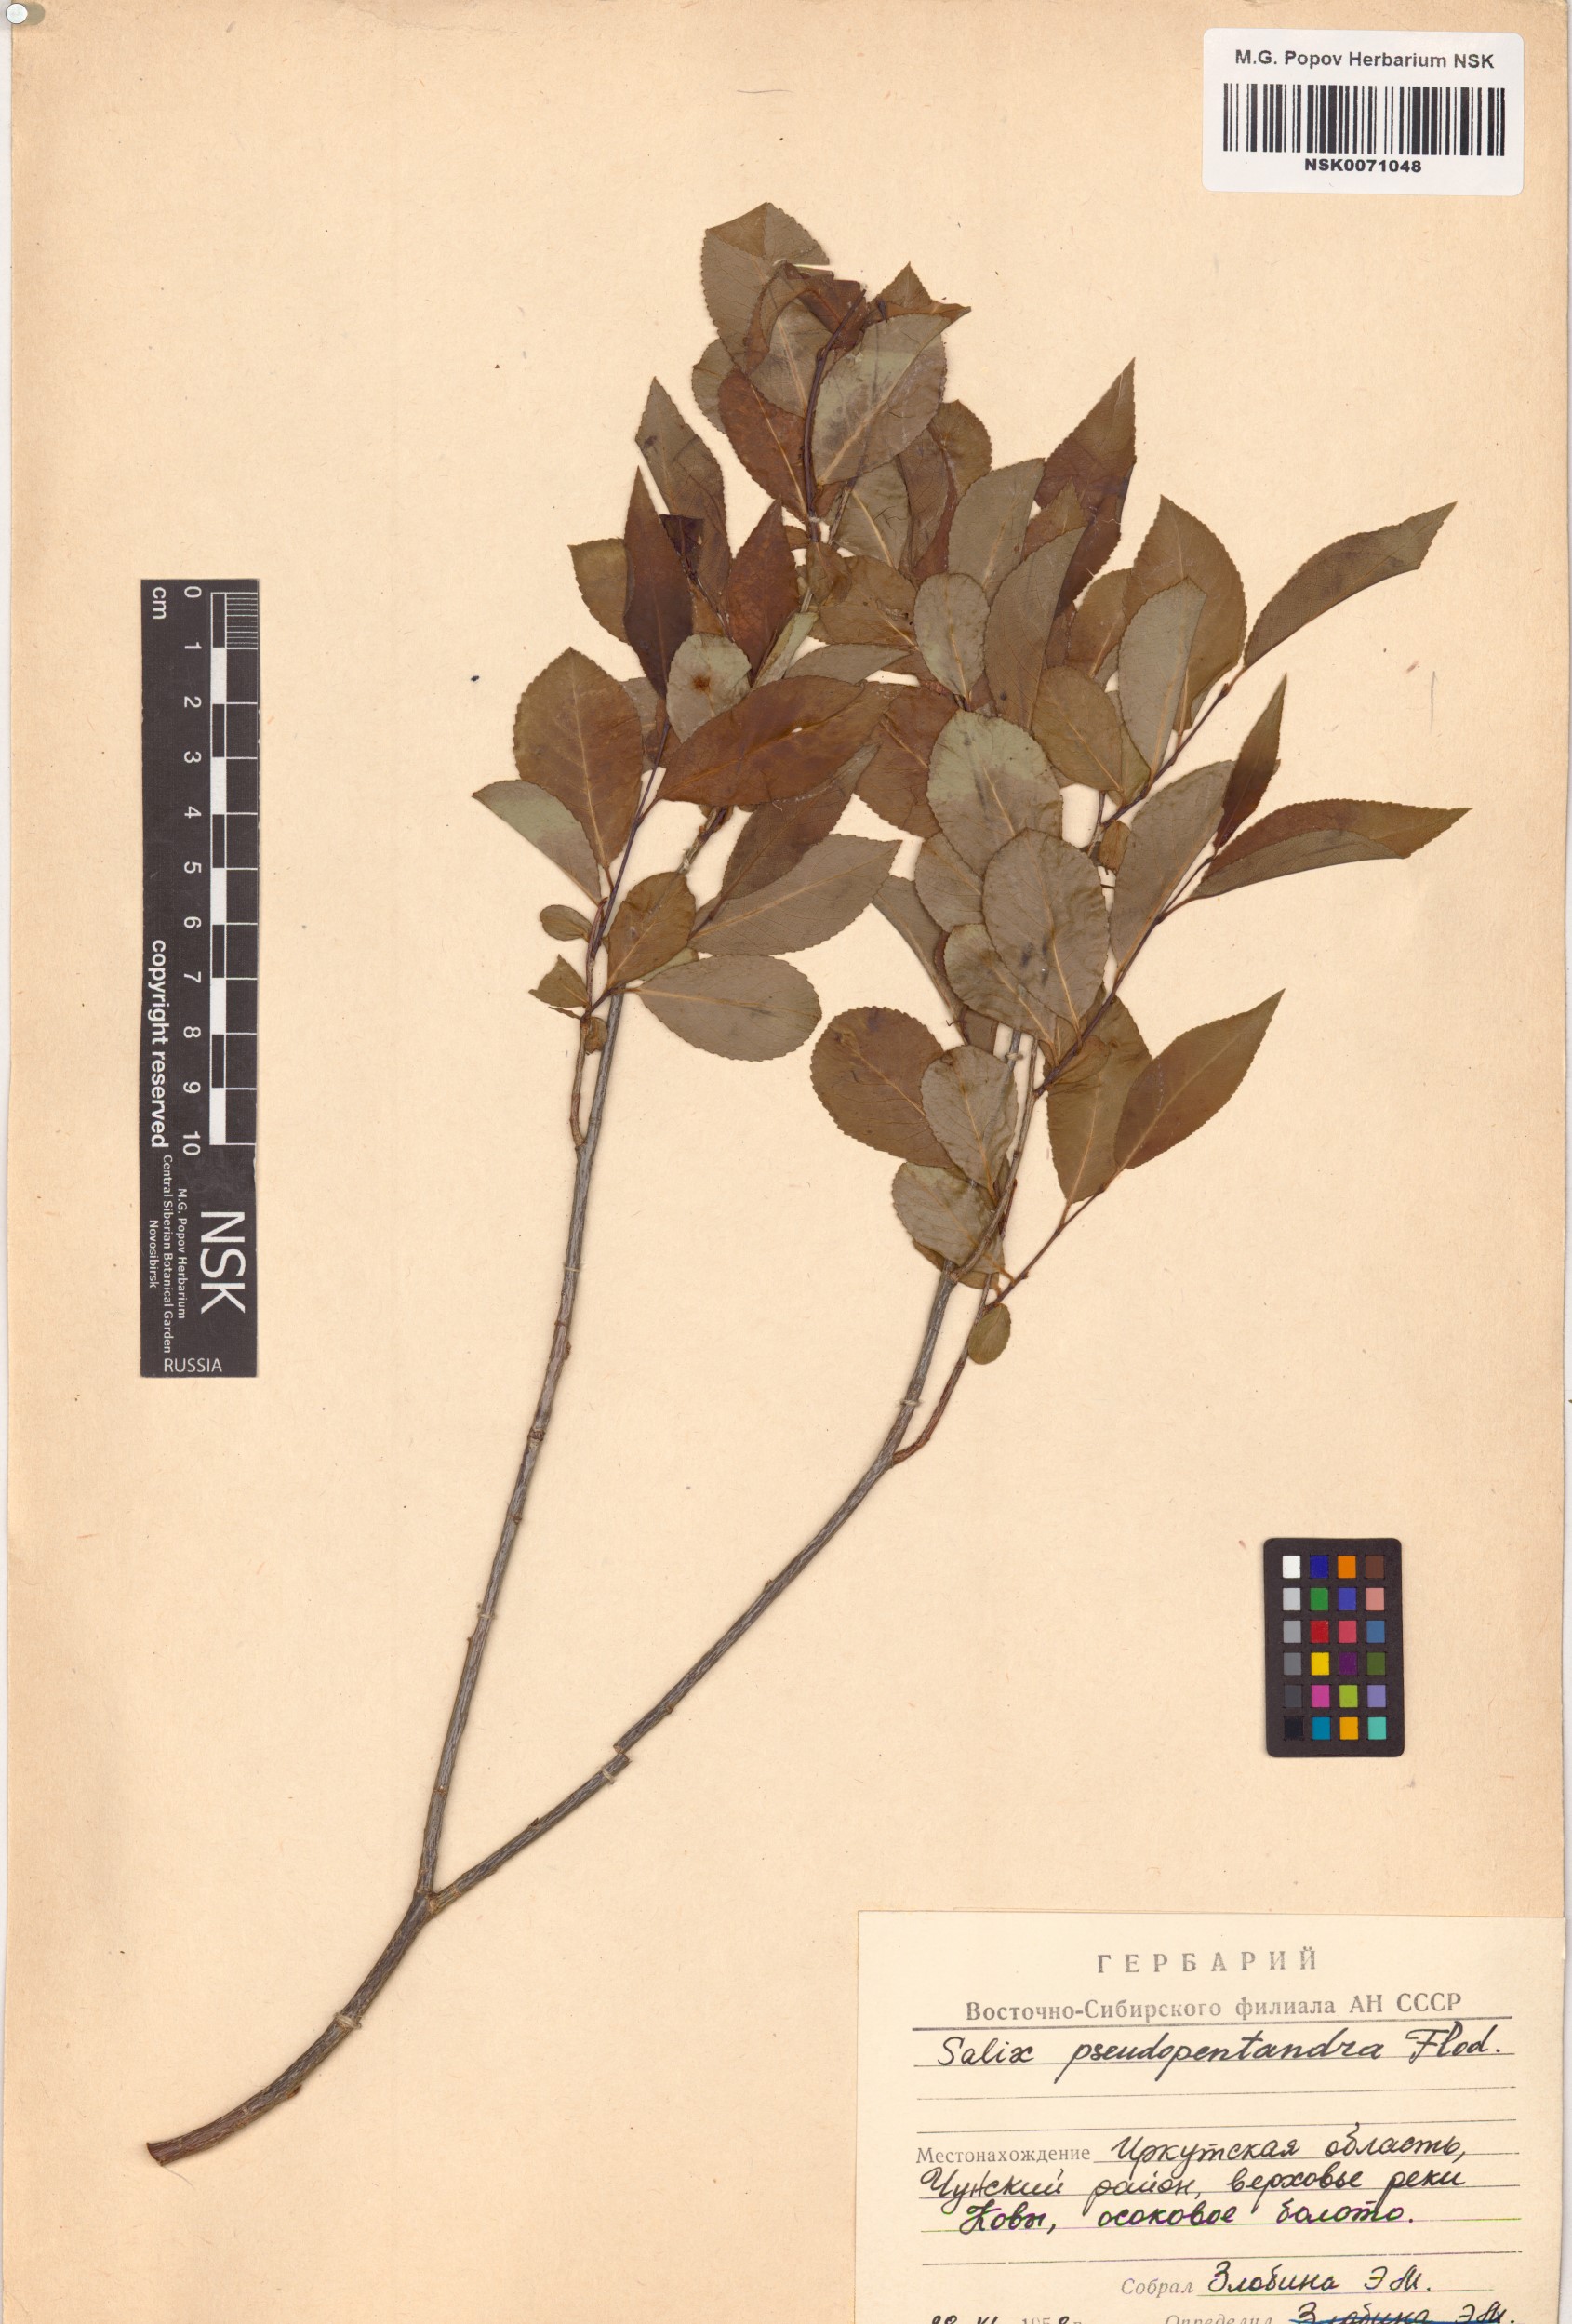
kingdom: Plantae
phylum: Tracheophyta
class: Magnoliopsida
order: Malpighiales
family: Salicaceae
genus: Salix
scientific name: Salix pseudopentandra
